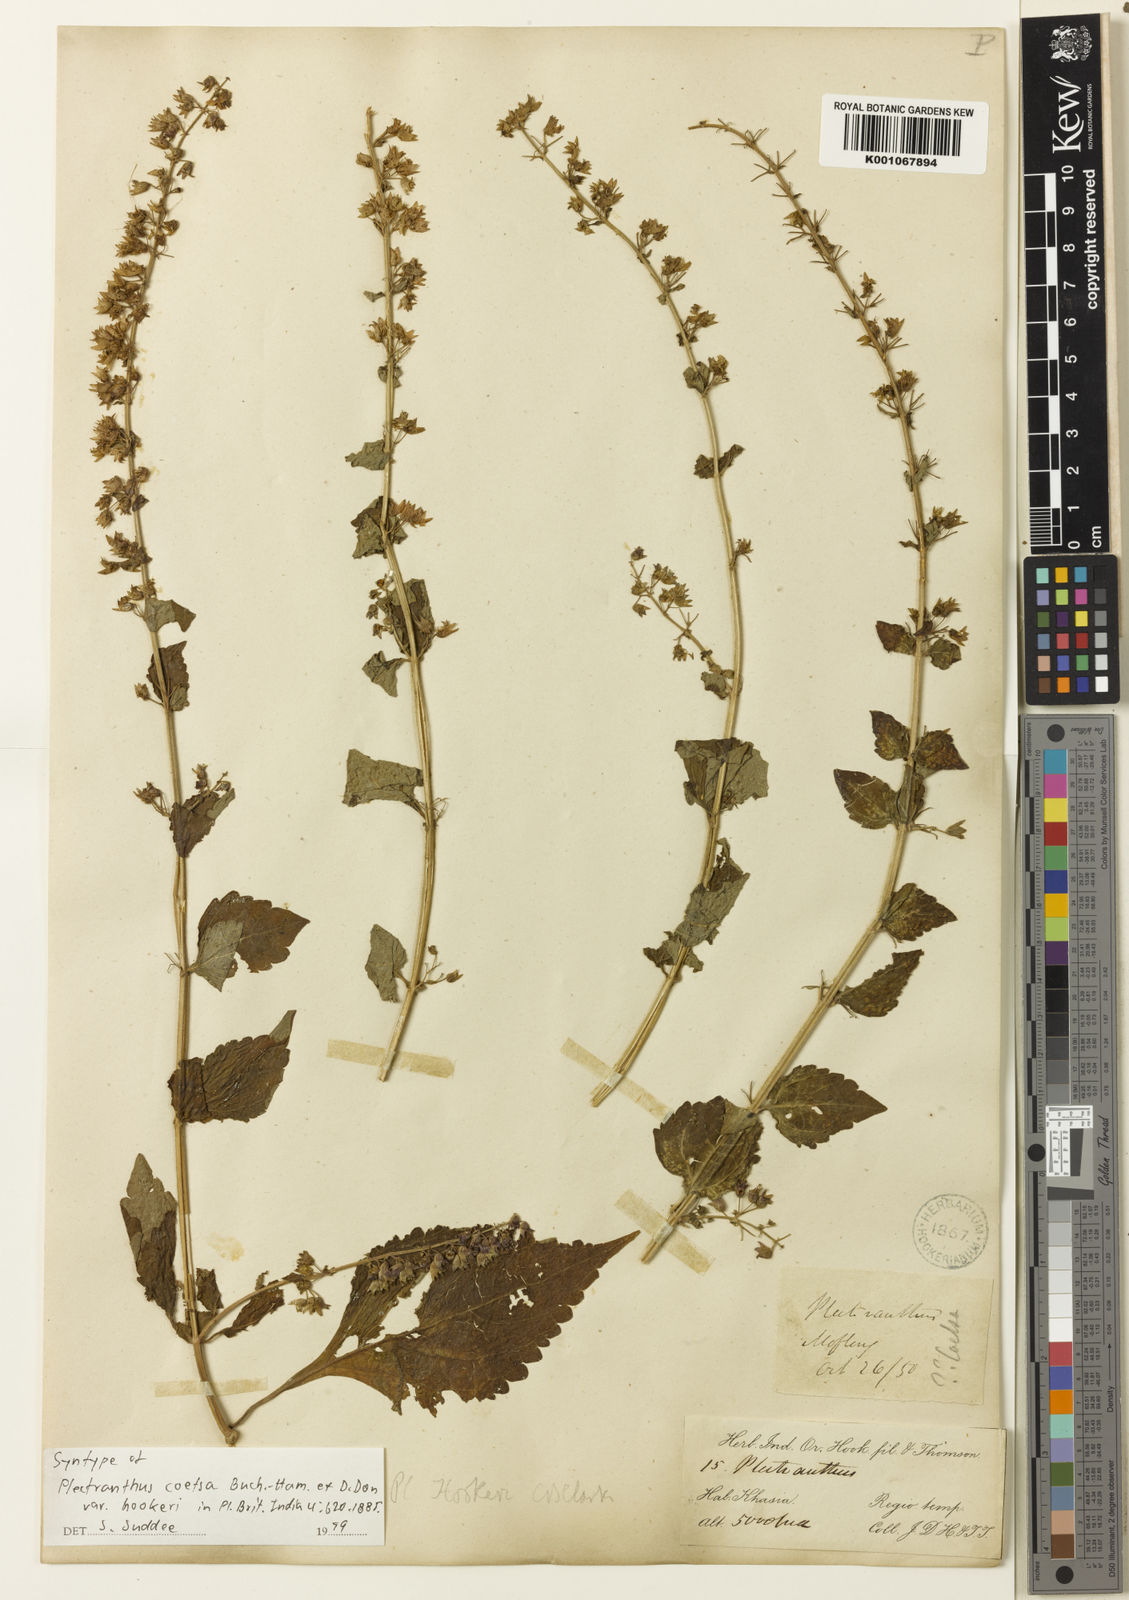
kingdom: Plantae
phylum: Tracheophyta
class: Magnoliopsida
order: Lamiales
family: Lamiaceae
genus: Isodon
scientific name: Isodon
